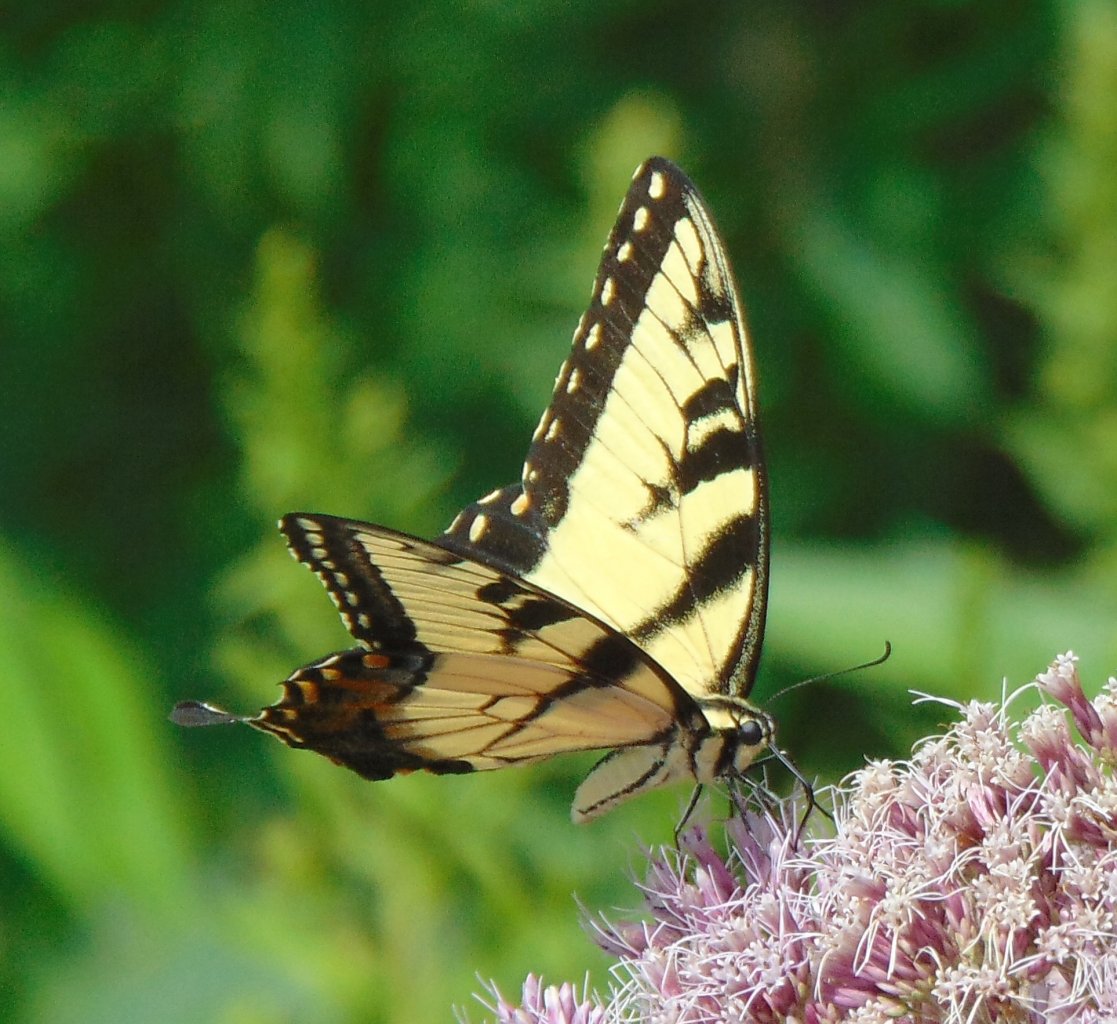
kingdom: Animalia
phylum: Arthropoda
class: Insecta
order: Lepidoptera
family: Papilionidae
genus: Pterourus
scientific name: Pterourus glaucus
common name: Eastern Tiger Swallowtail
